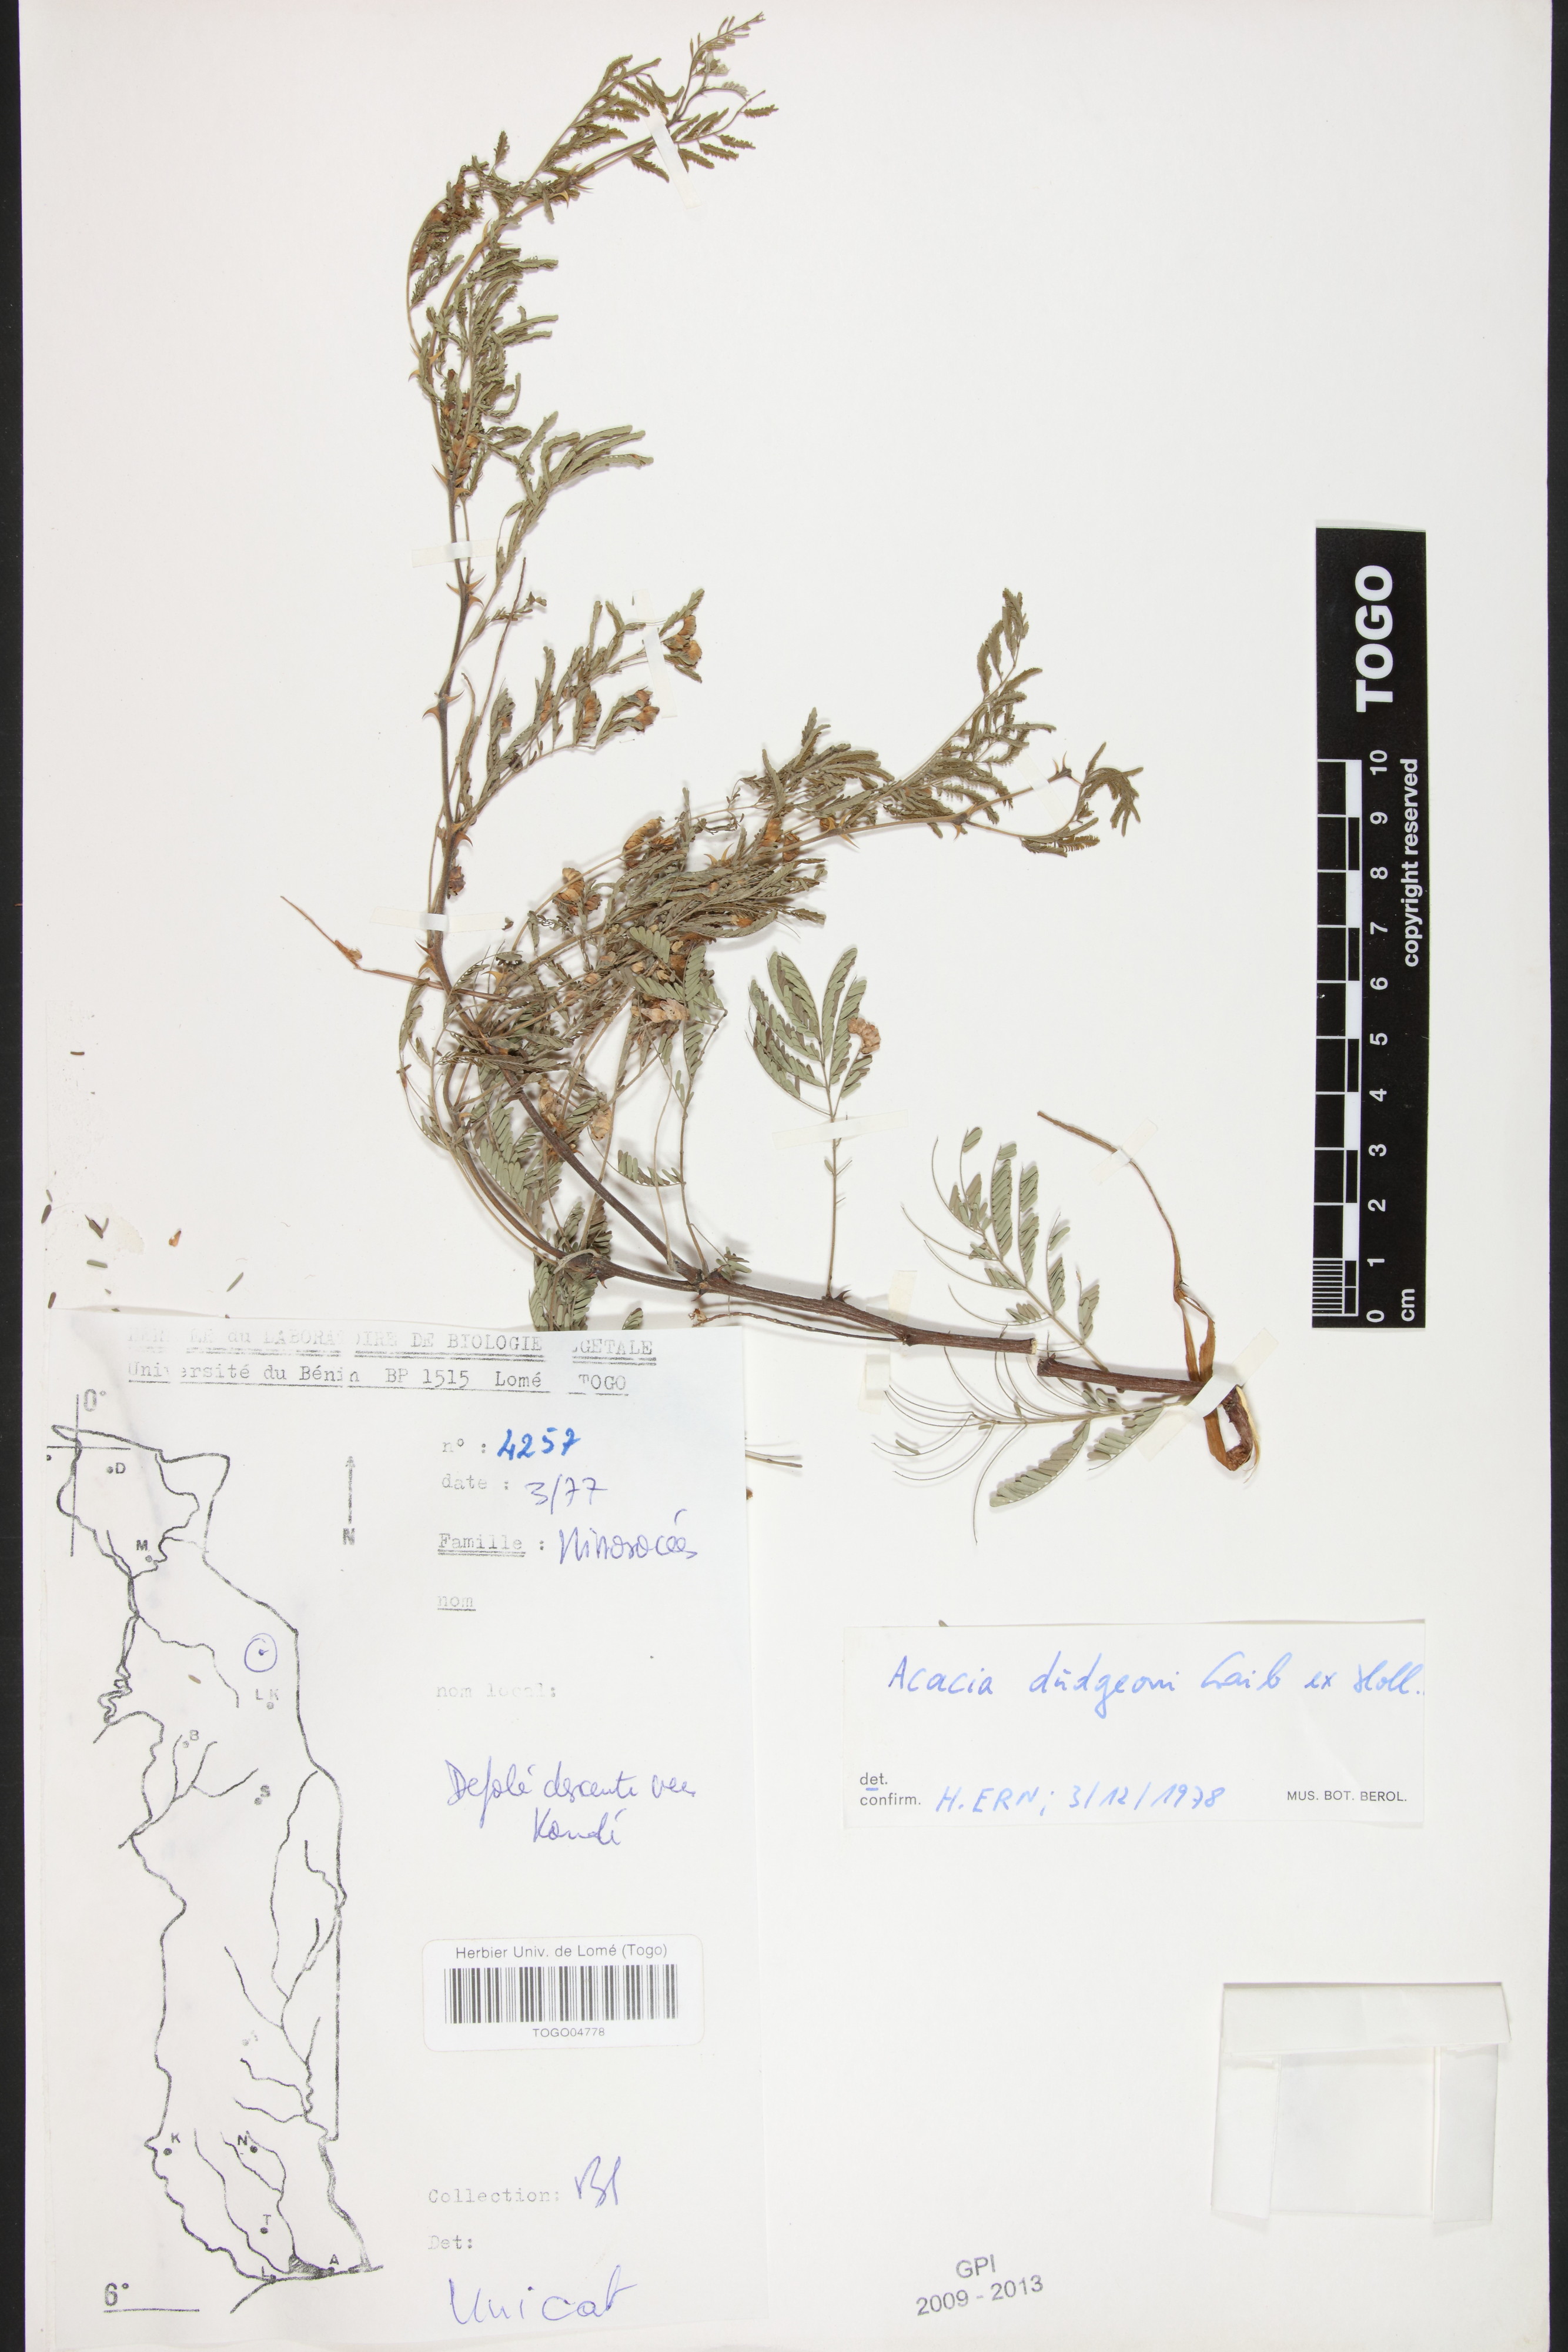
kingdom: Plantae
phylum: Tracheophyta
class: Magnoliopsida
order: Fabales
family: Fabaceae
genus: Senegalia
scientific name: Senegalia dudgeonii
